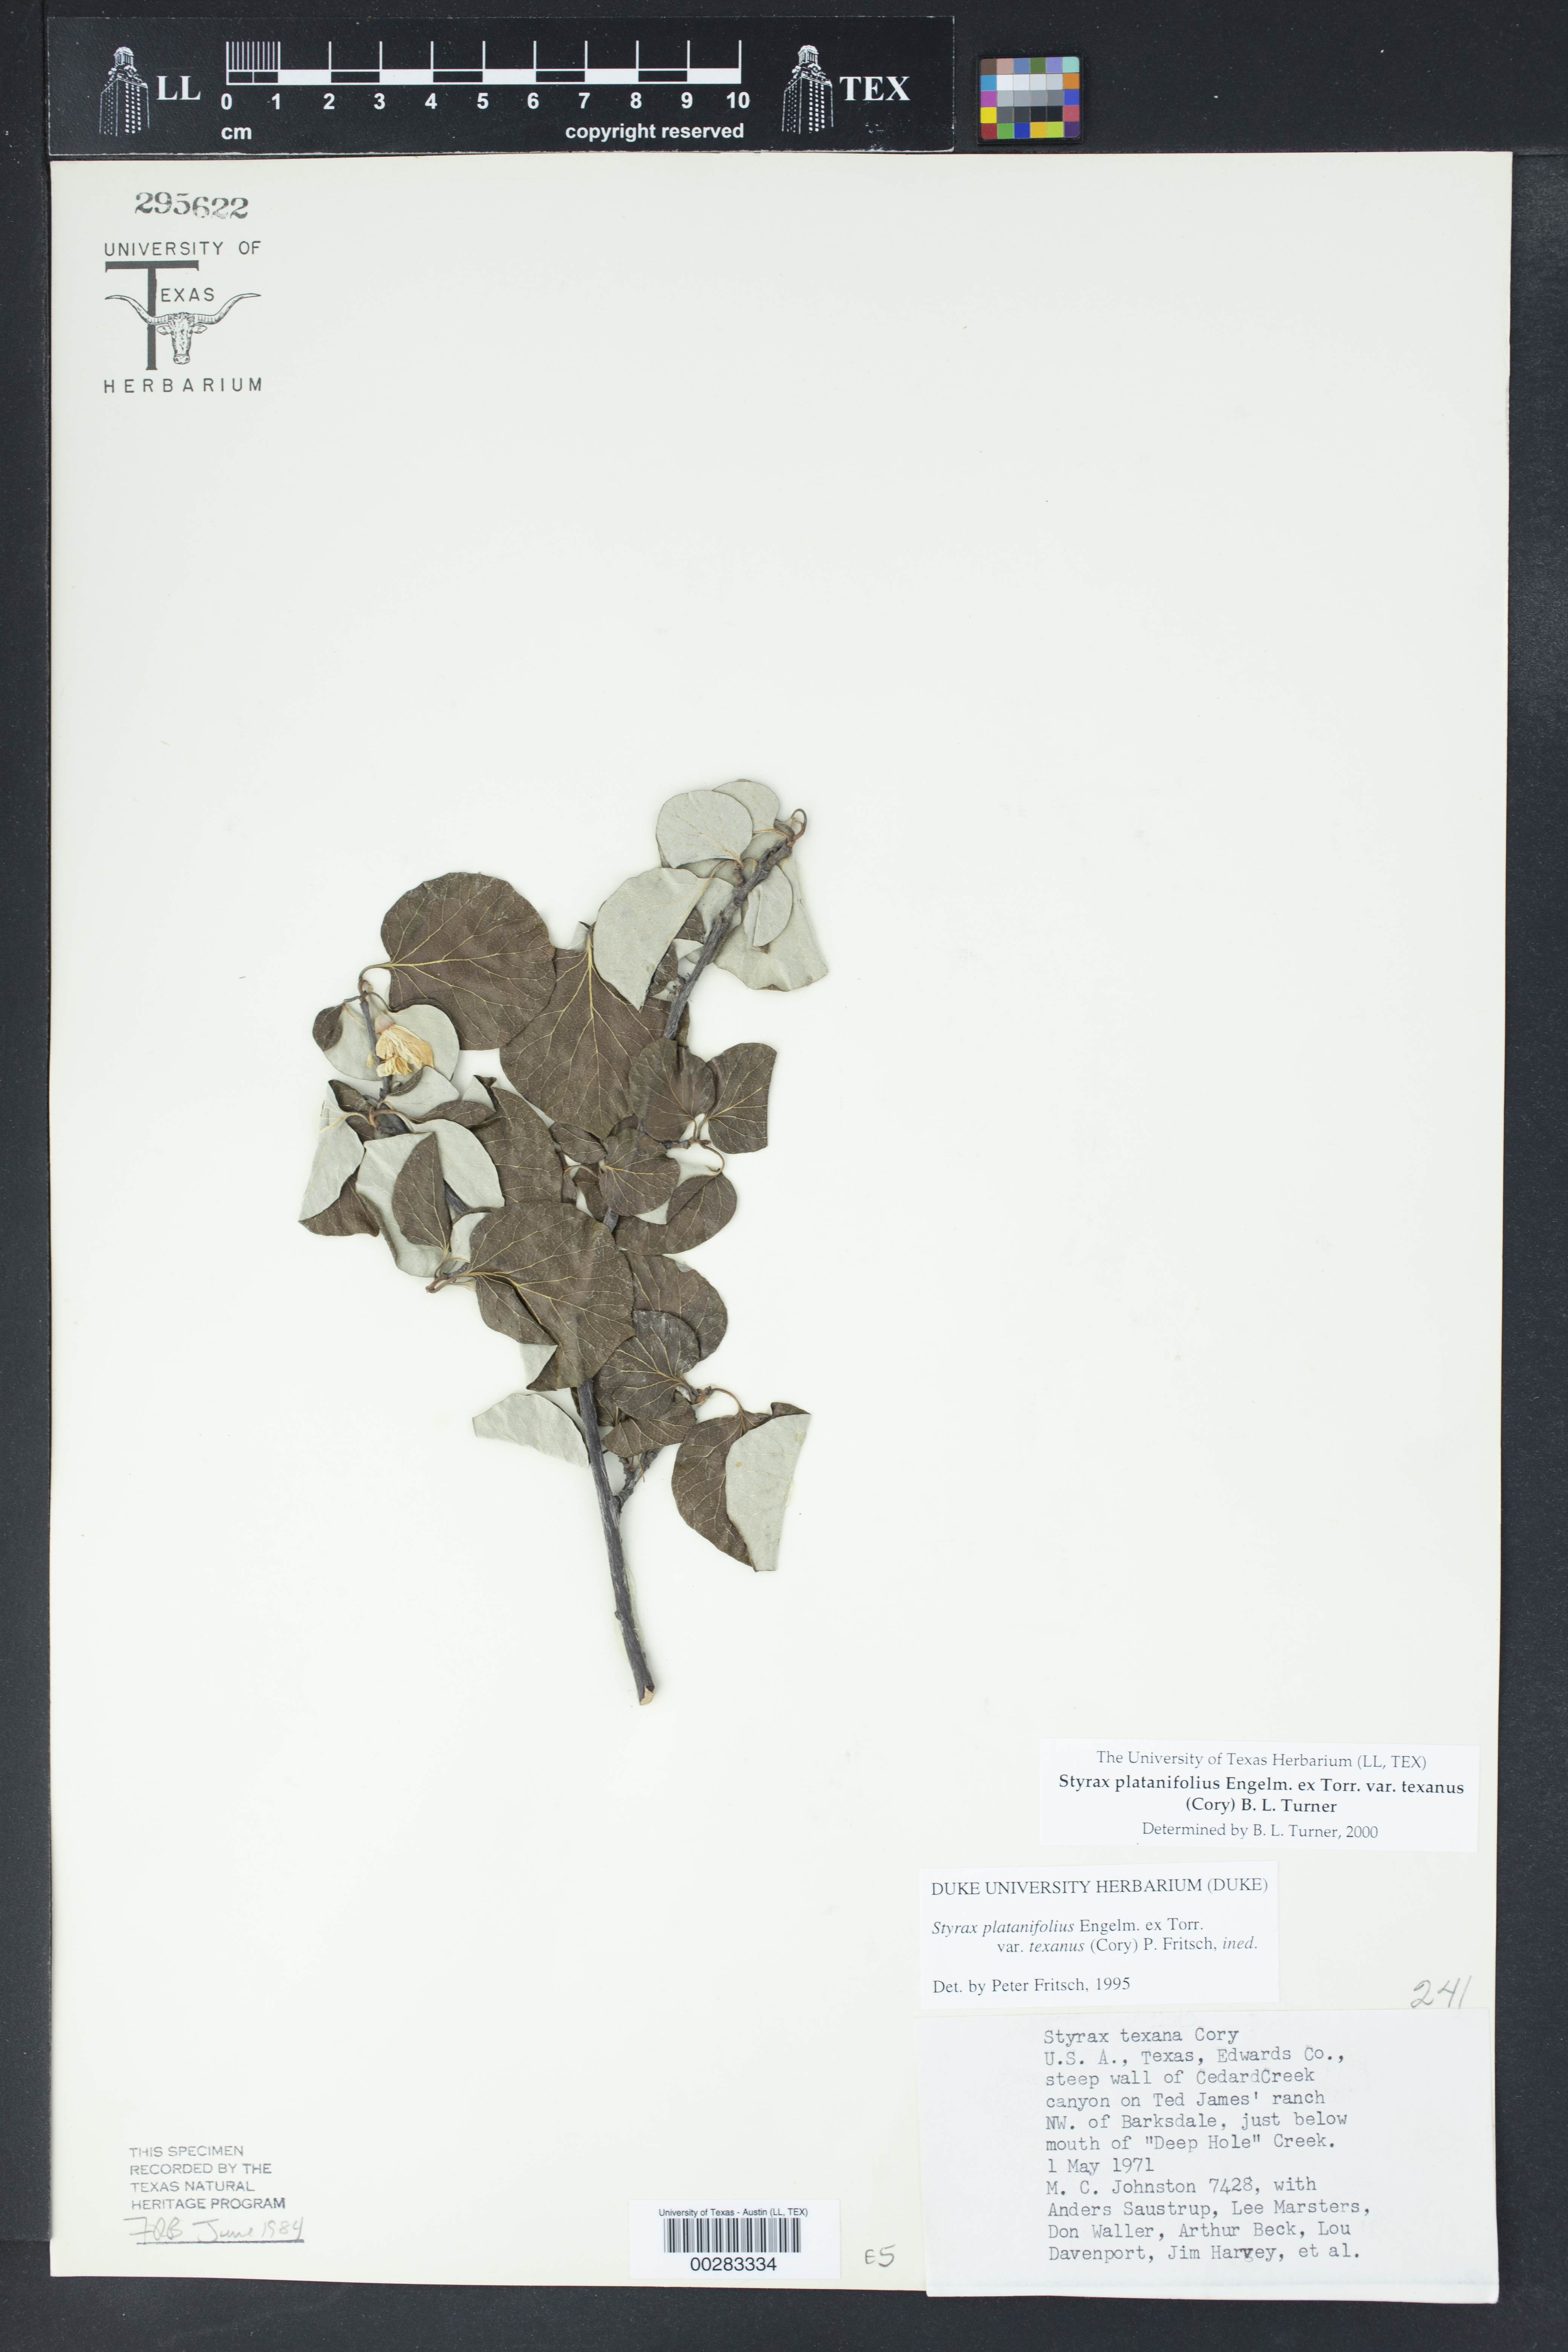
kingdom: Plantae
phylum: Tracheophyta
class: Magnoliopsida
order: Ericales
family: Styracaceae
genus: Styrax
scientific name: Styrax platanifolius
